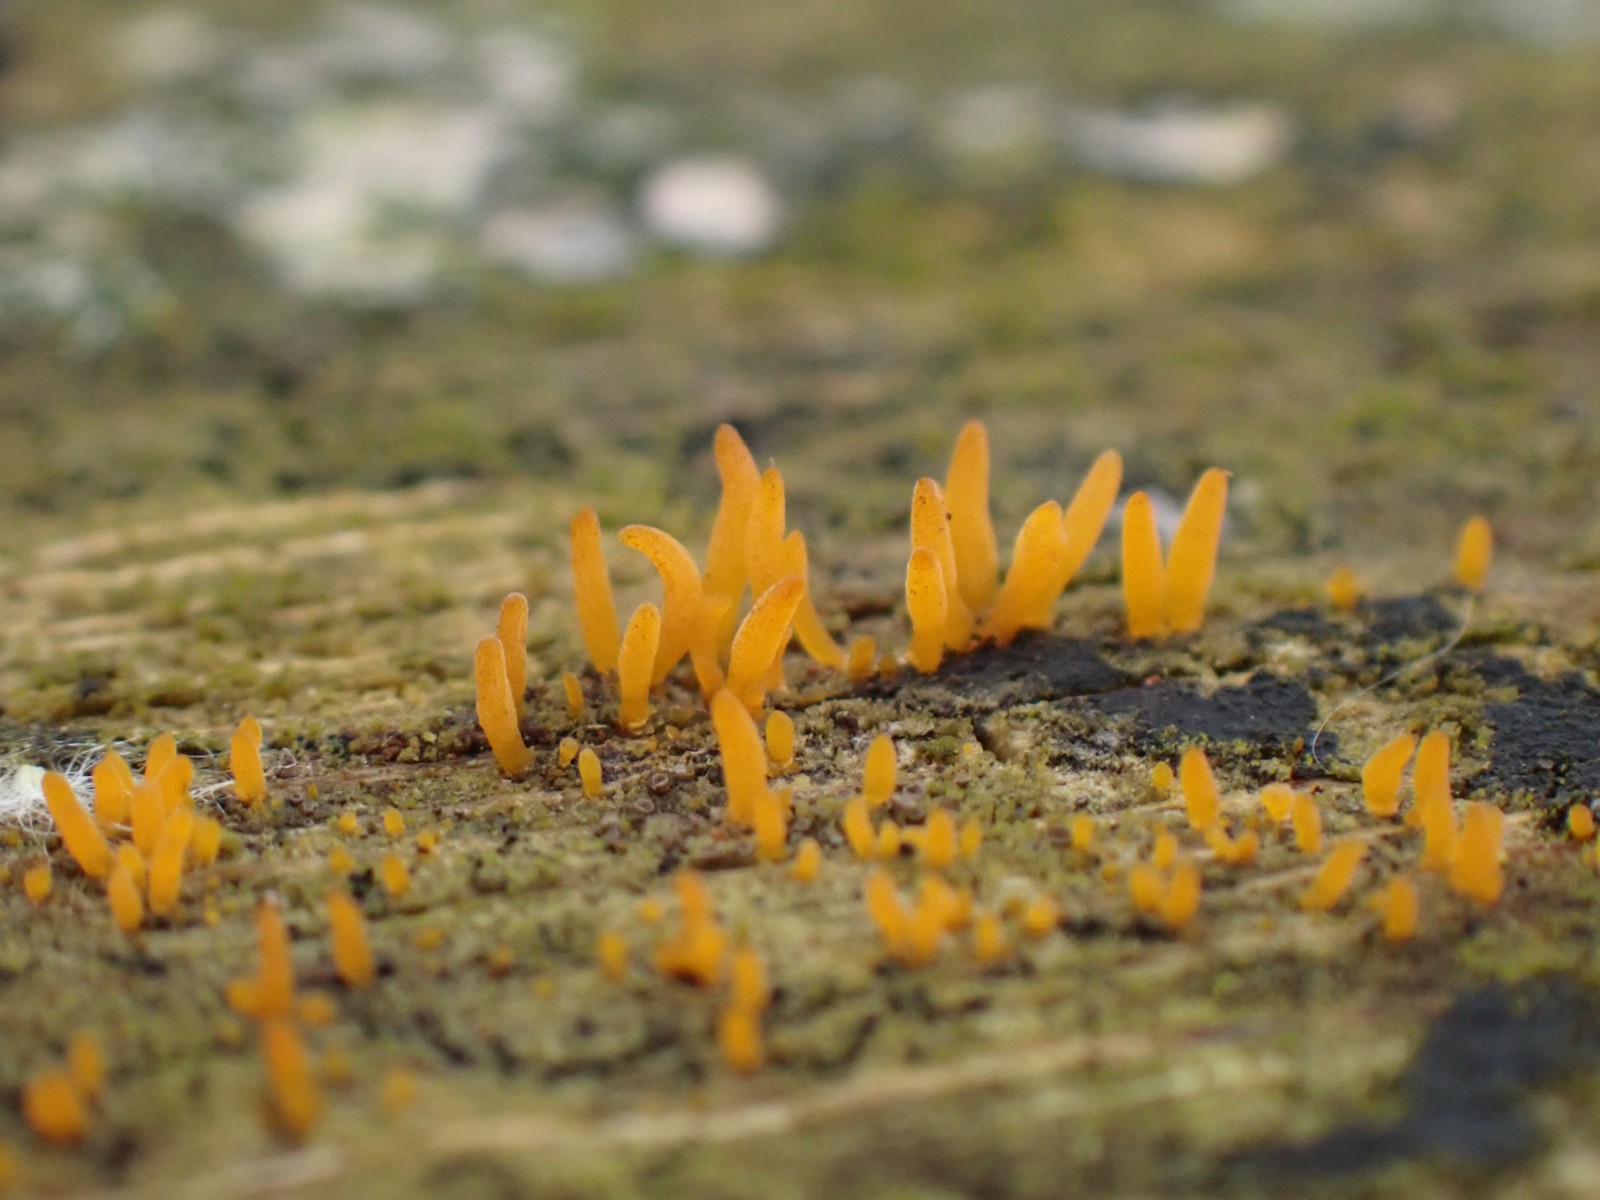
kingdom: Fungi
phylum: Basidiomycota
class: Dacrymycetes
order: Dacrymycetales
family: Dacrymycetaceae
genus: Calocera
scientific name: Calocera cornea
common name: liden guldgaffel
